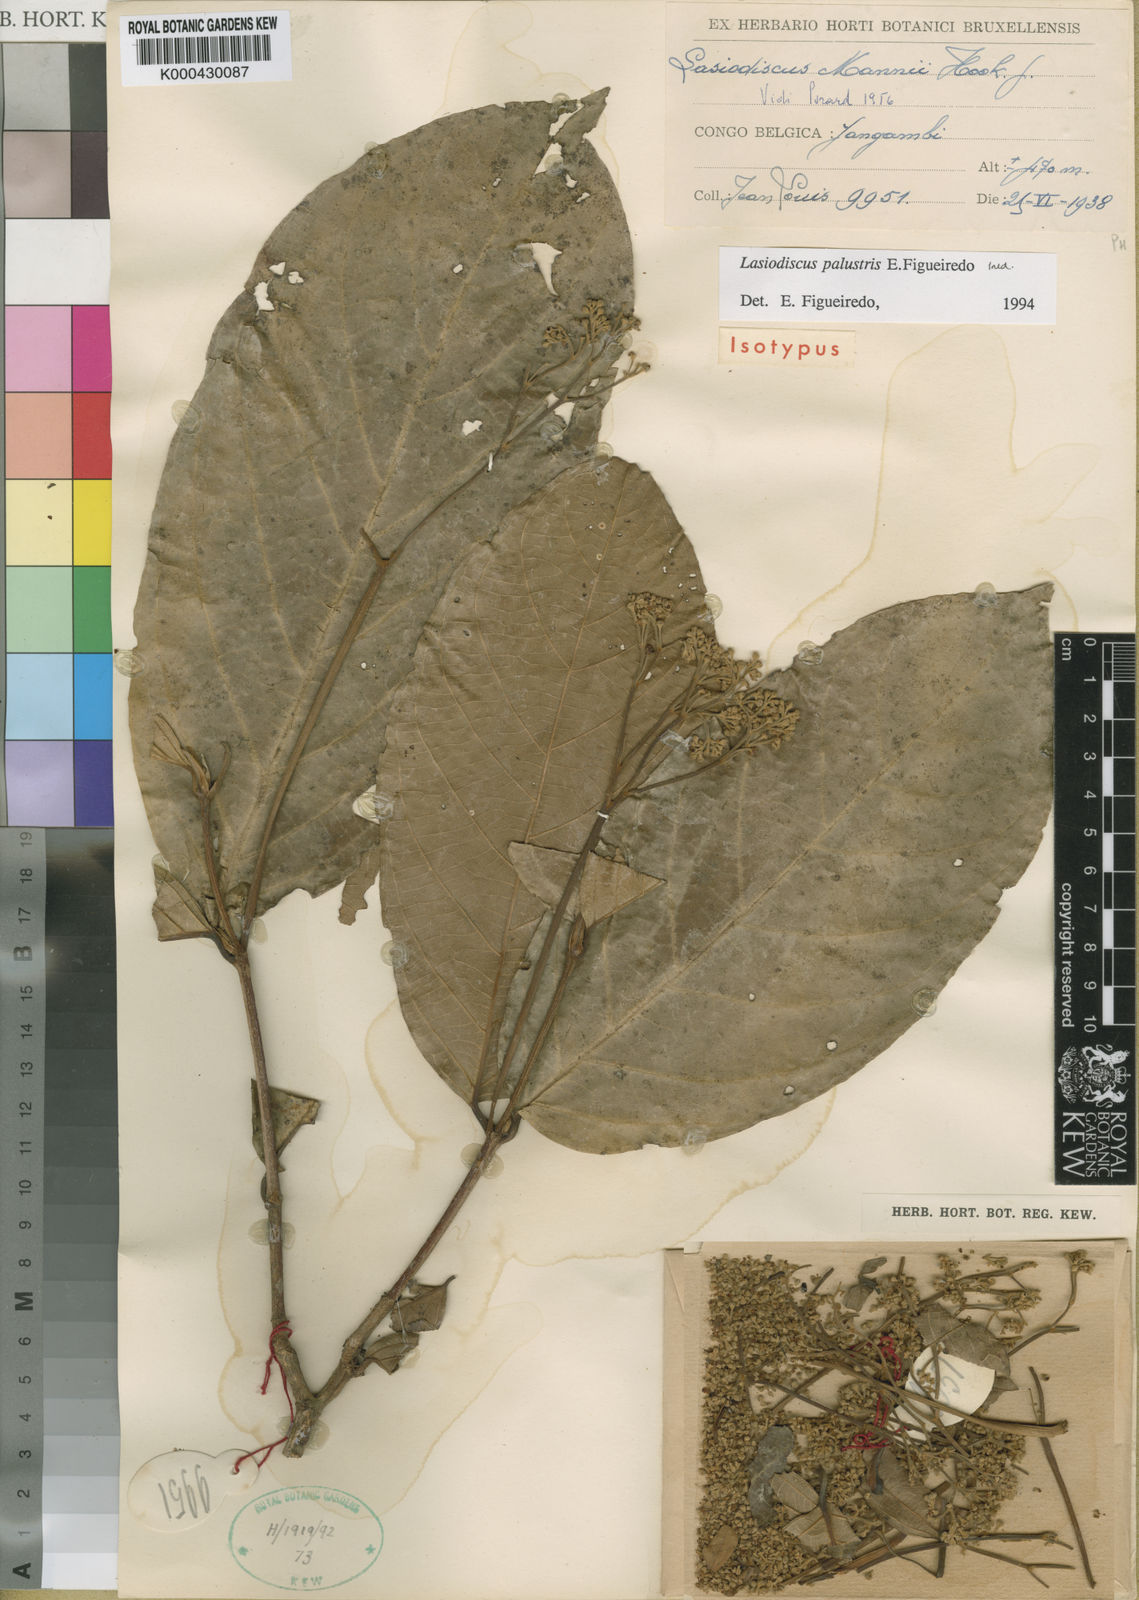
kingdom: Plantae
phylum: Tracheophyta
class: Magnoliopsida
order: Rosales
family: Rhamnaceae
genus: Lasiodiscus
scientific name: Lasiodiscus palustris
